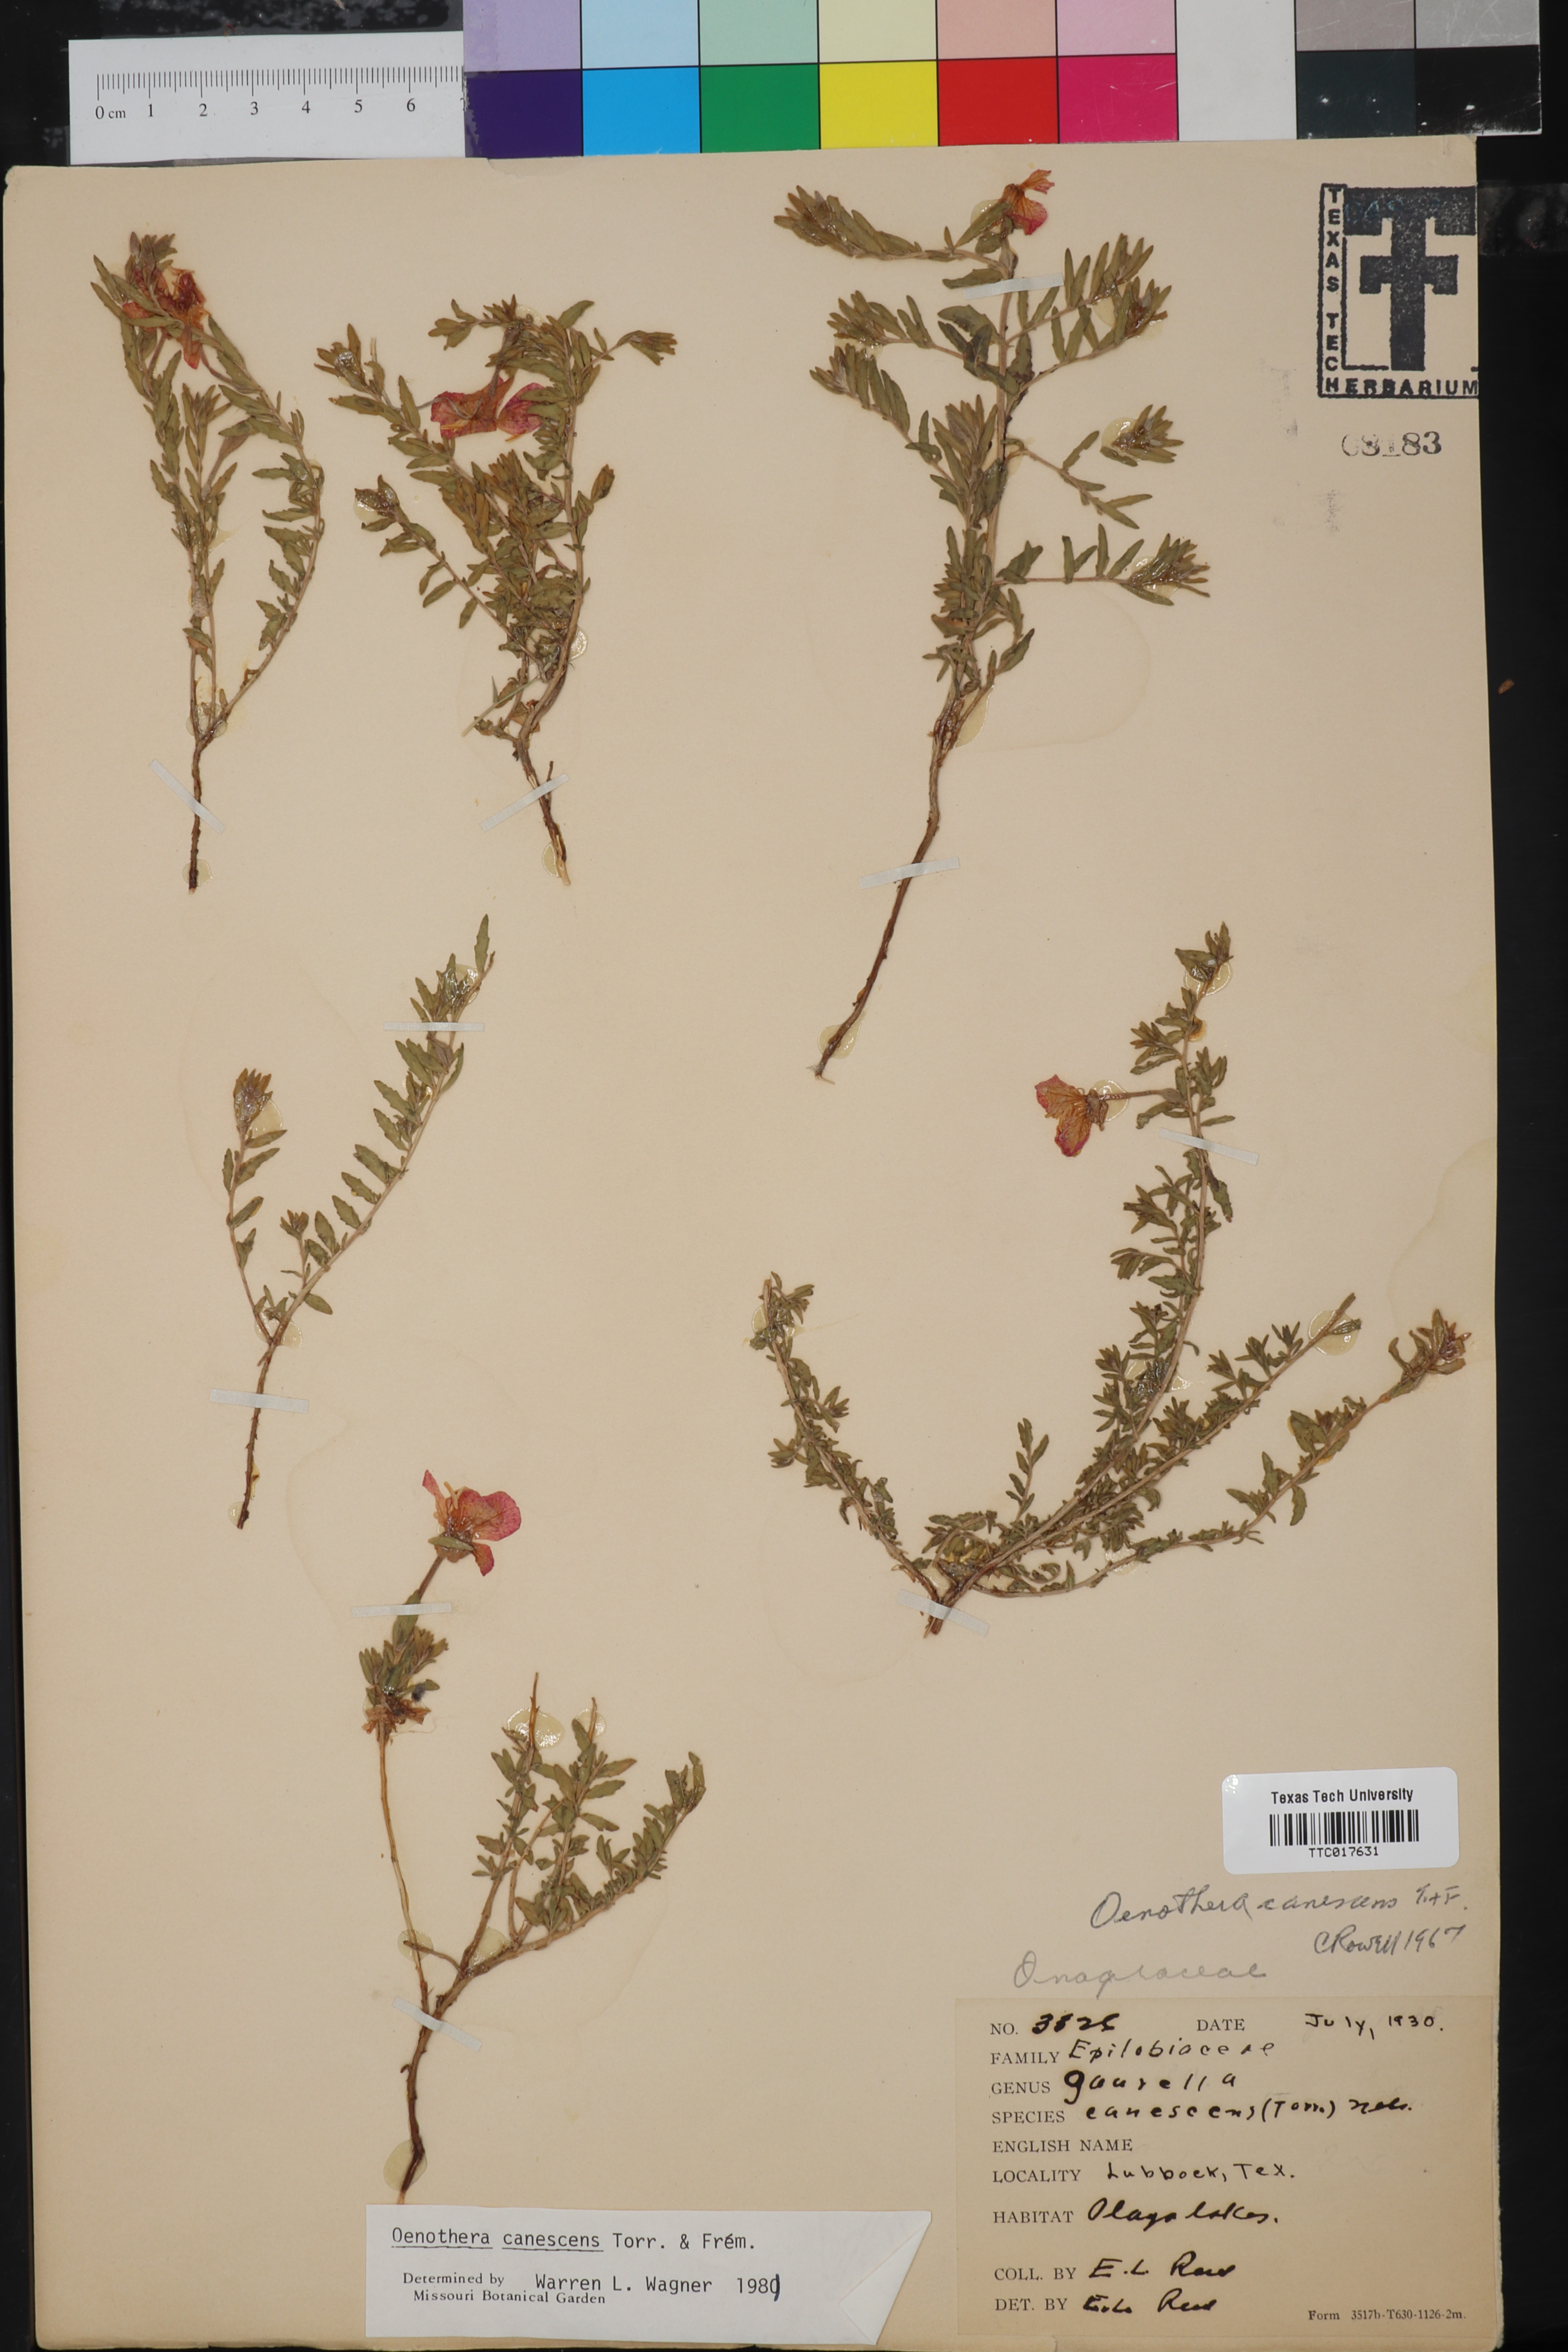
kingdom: Plantae
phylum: Tracheophyta
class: Magnoliopsida
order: Myrtales
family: Onagraceae
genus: Oenothera
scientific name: Oenothera canescens
